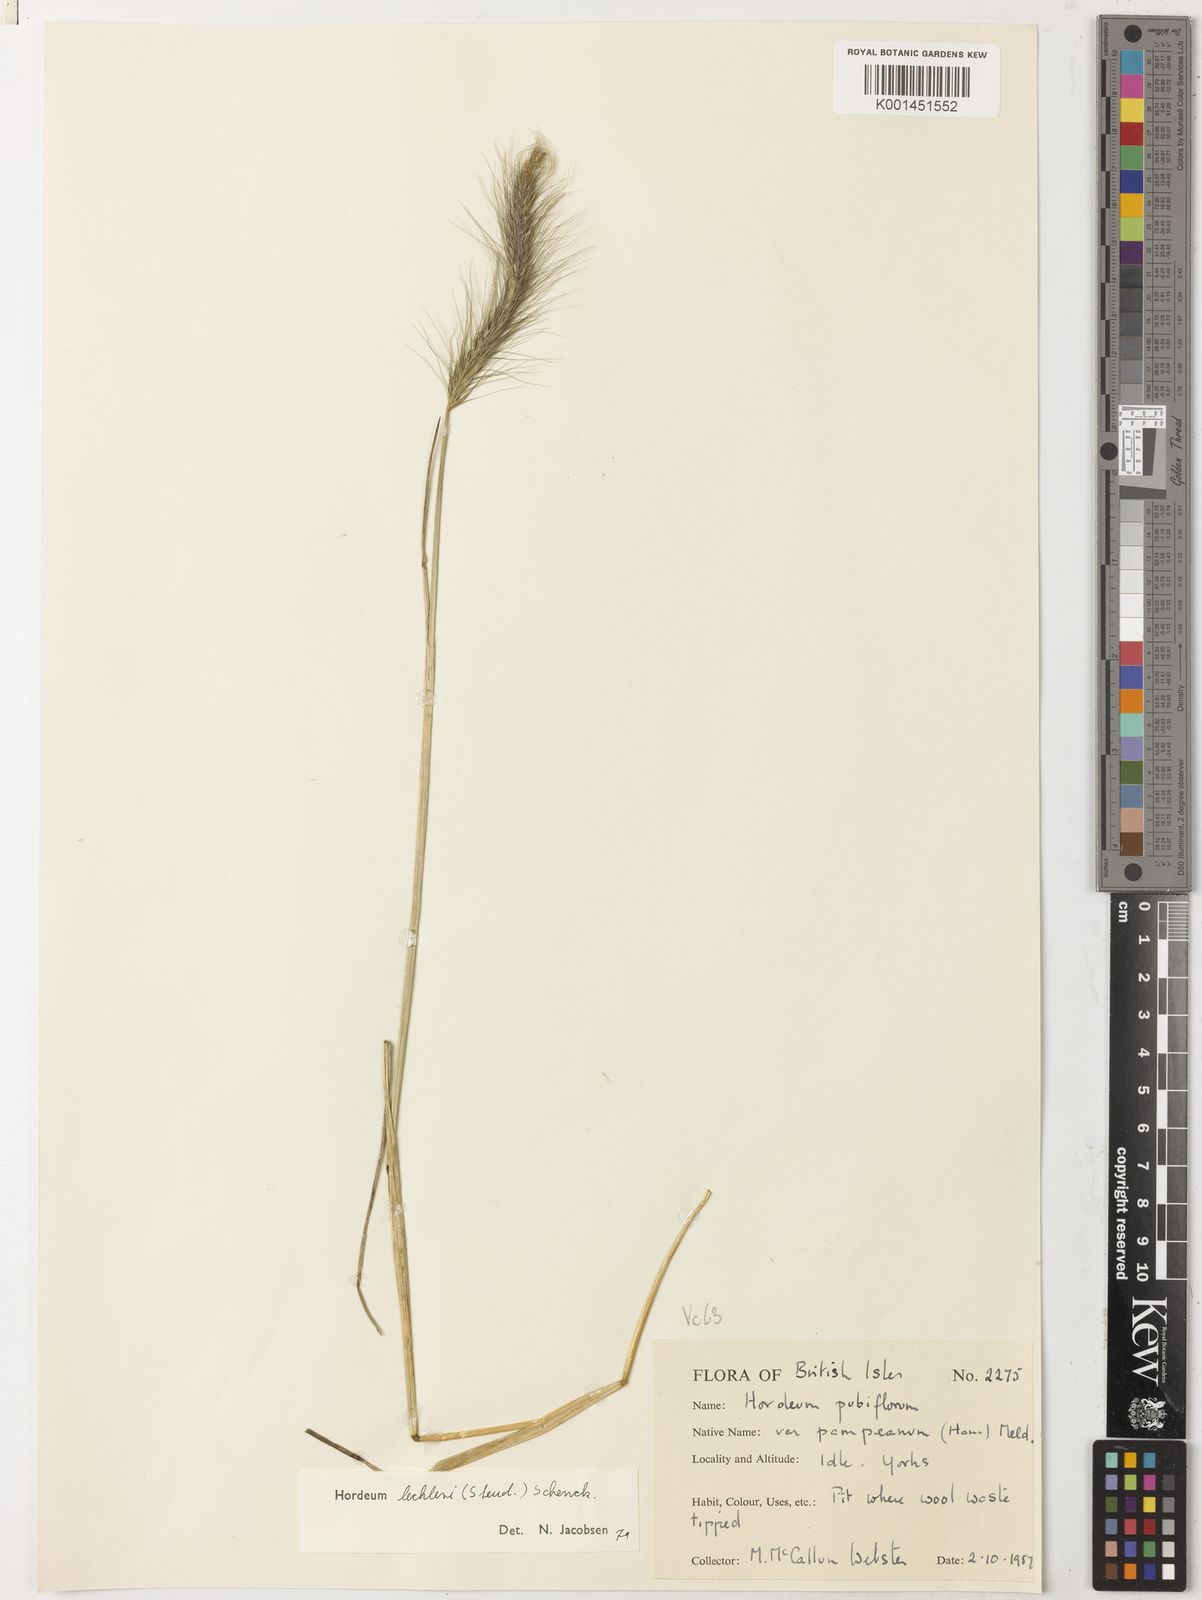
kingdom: Plantae
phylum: Tracheophyta
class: Liliopsida
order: Poales
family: Poaceae
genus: Hordeum
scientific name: Hordeum lechleri
